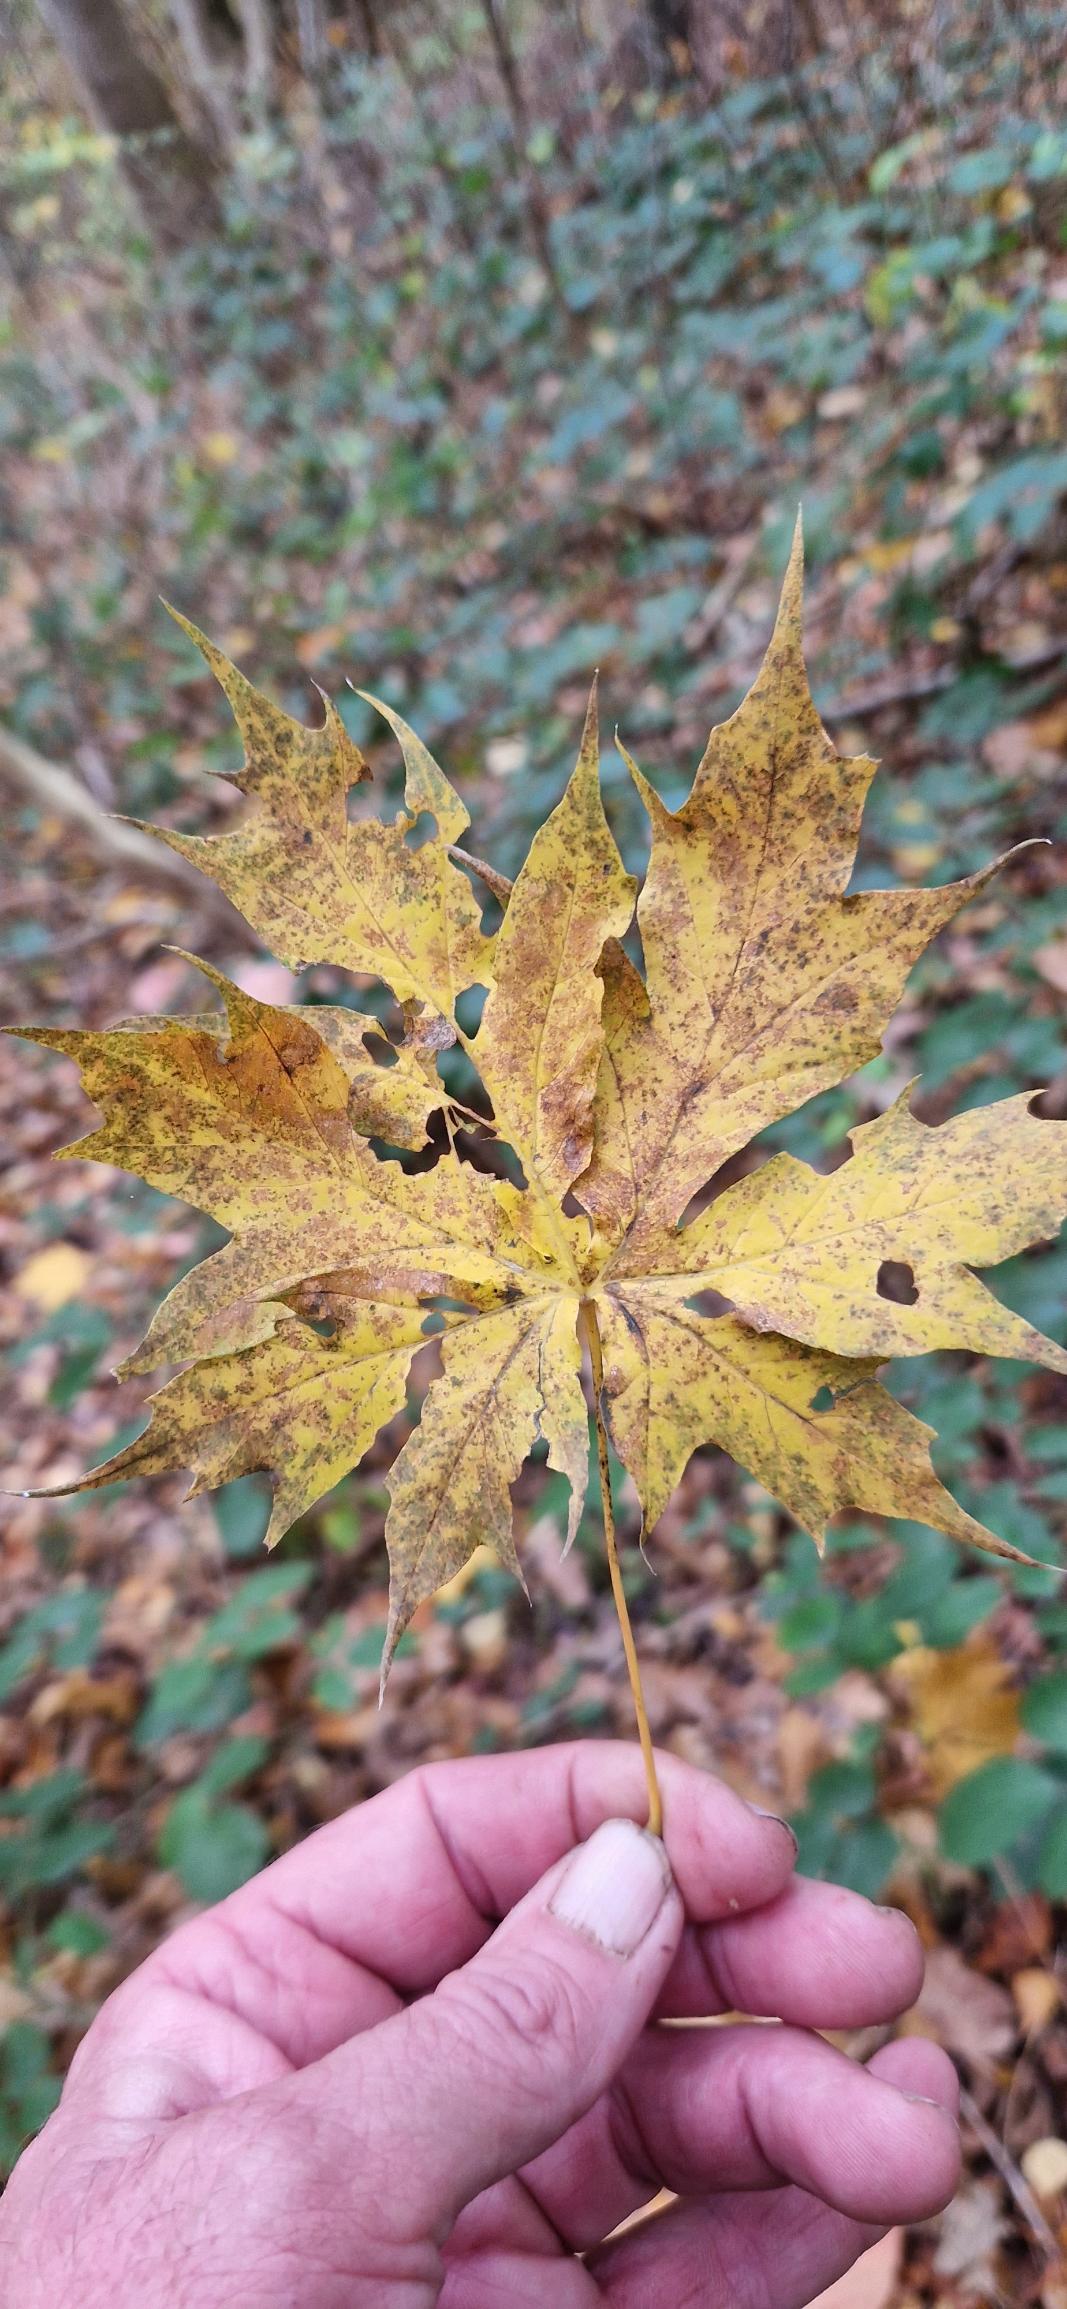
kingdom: Plantae
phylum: Tracheophyta
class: Magnoliopsida
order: Sapindales
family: Sapindaceae
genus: Acer
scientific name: Acer platanoides
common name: Spids-løn
